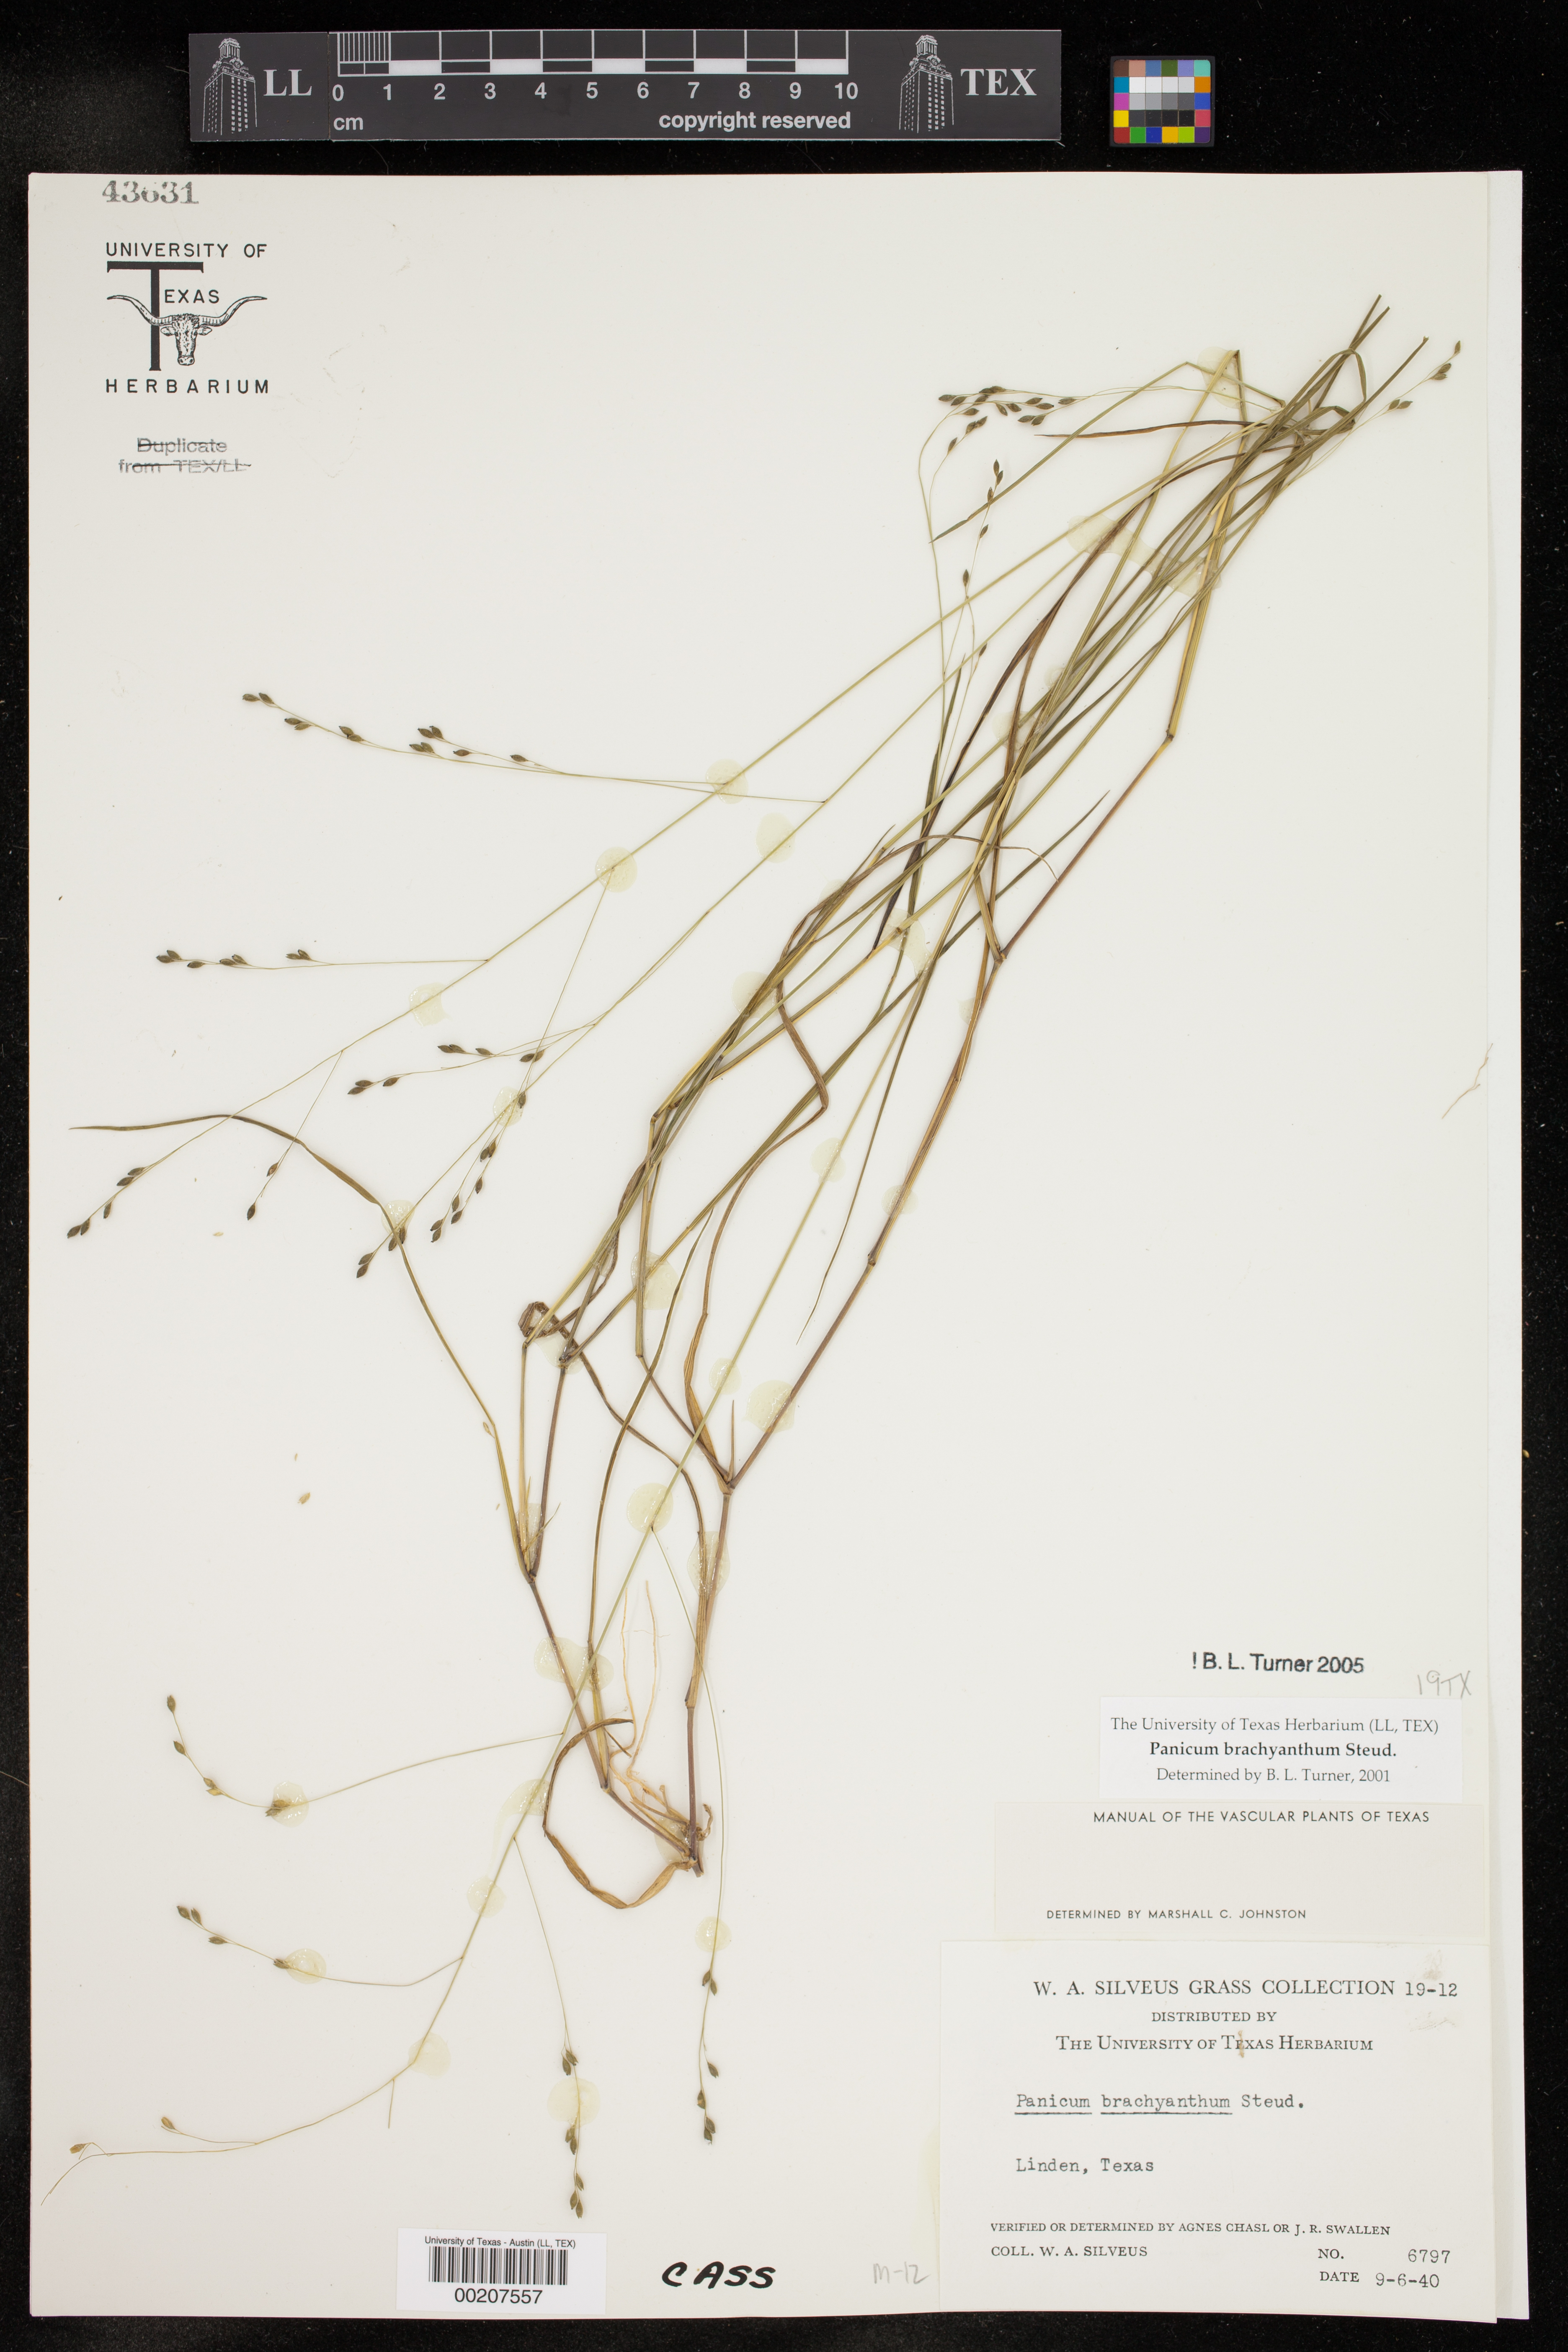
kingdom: Plantae
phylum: Tracheophyta
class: Liliopsida
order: Poales
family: Poaceae
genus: Kellochloa
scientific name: Kellochloa brachyantha
